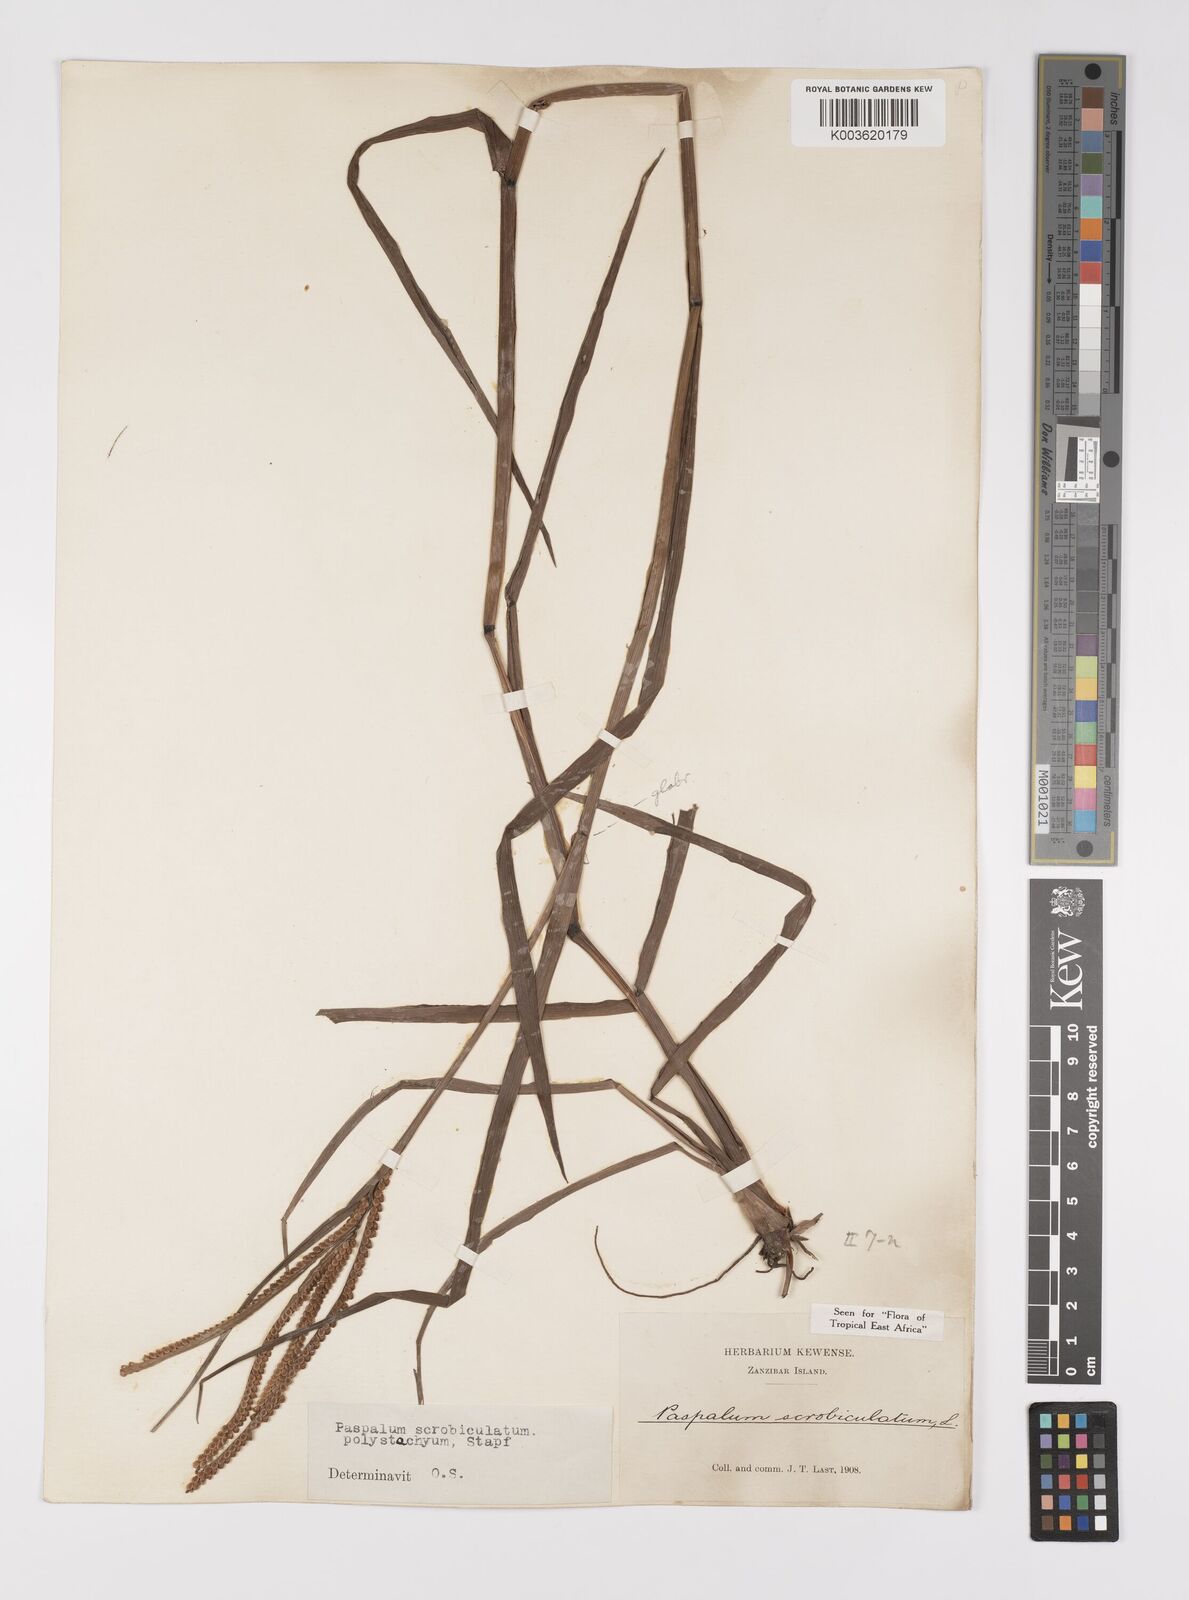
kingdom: Plantae
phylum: Tracheophyta
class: Liliopsida
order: Poales
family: Poaceae
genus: Paspalum
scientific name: Paspalum scrobiculatum
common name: Kodo millet
